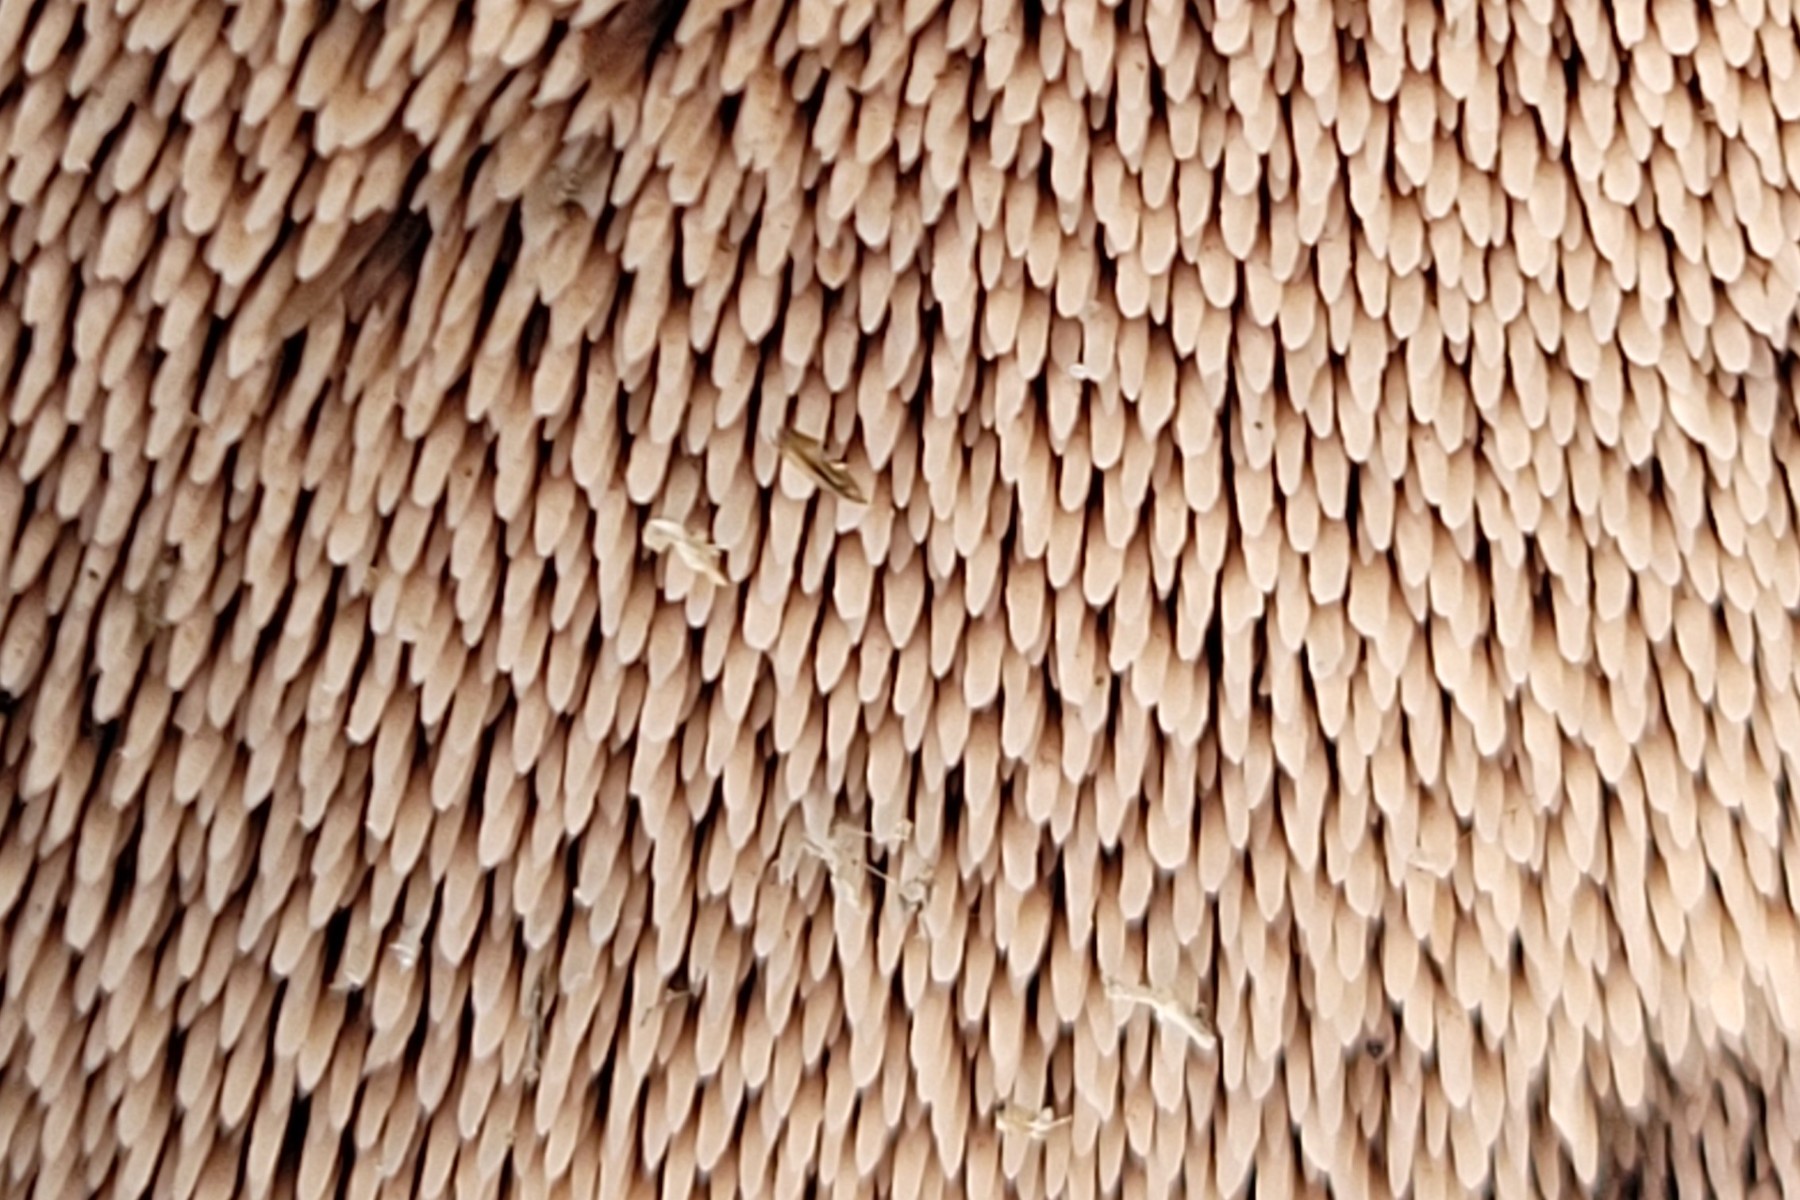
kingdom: Fungi
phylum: Basidiomycota
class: Agaricomycetes
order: Thelephorales
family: Bankeraceae
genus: Hydnellum
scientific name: Hydnellum scabrosum
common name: blåfodet korkpigsvamp
